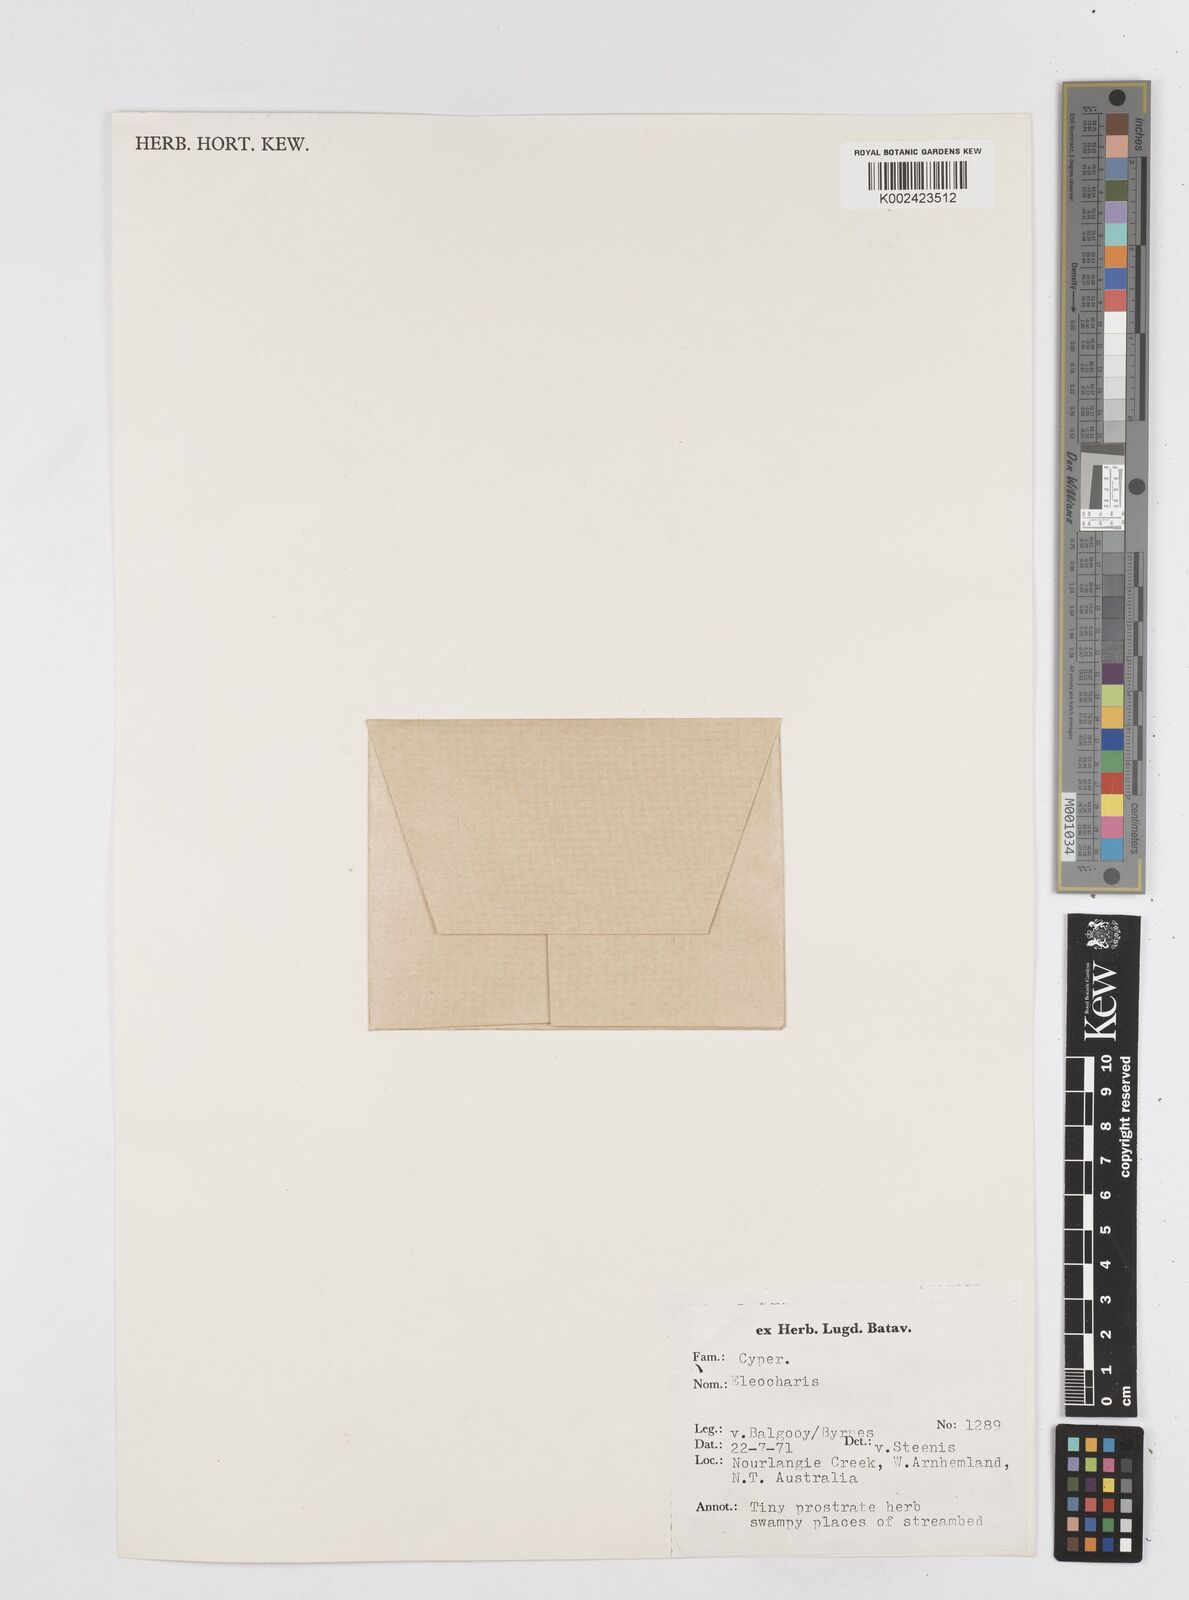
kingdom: Plantae
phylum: Tracheophyta
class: Liliopsida
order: Poales
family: Cyperaceae
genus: Eleocharis
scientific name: Eleocharis
